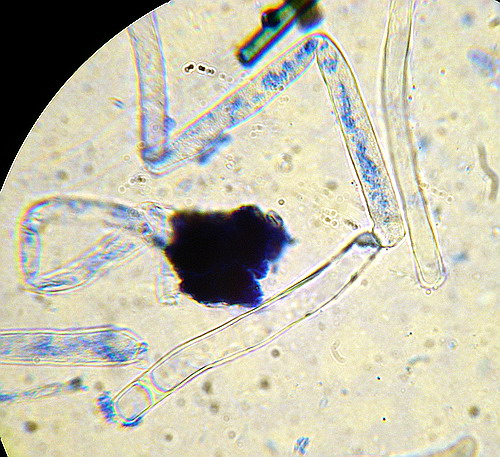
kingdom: Fungi
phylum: Basidiomycota
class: Agaricomycetes
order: Boletales
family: Boletaceae
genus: Leccinum
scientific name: Leccinum cyaneobasileucum
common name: almindelig skælrørhat
